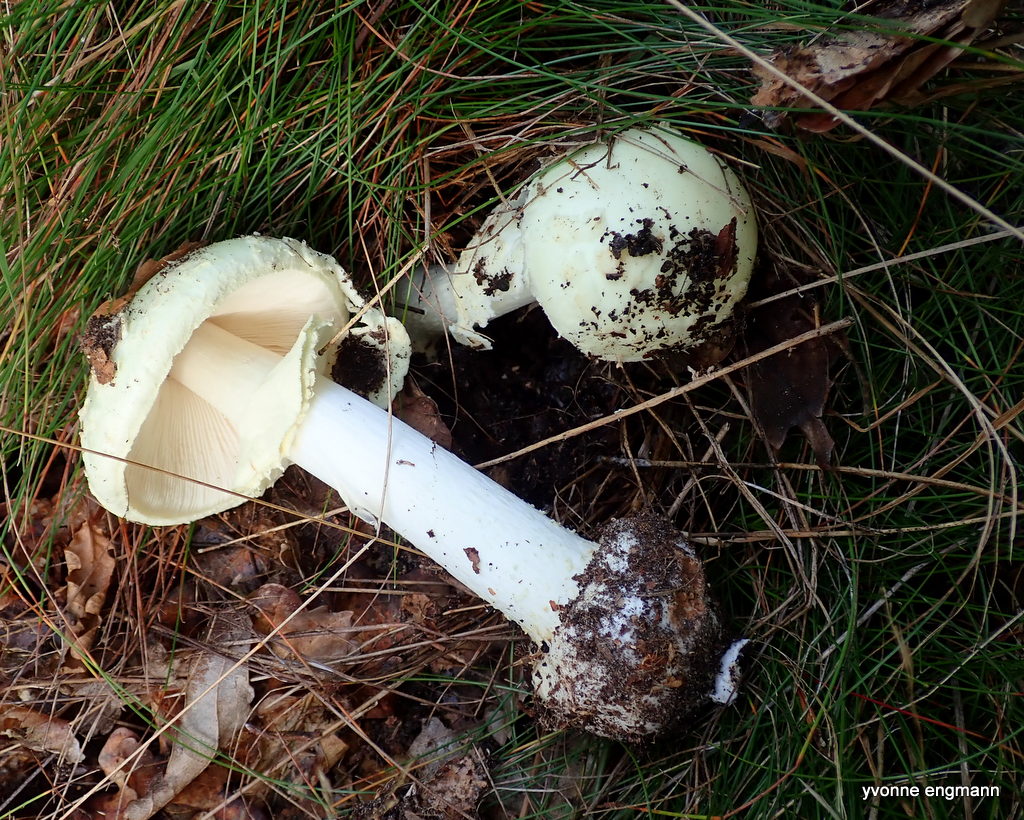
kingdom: Fungi
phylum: Basidiomycota
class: Agaricomycetes
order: Agaricales
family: Amanitaceae
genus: Amanita
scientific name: Amanita citrina
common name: kugleknoldet fluesvamp
